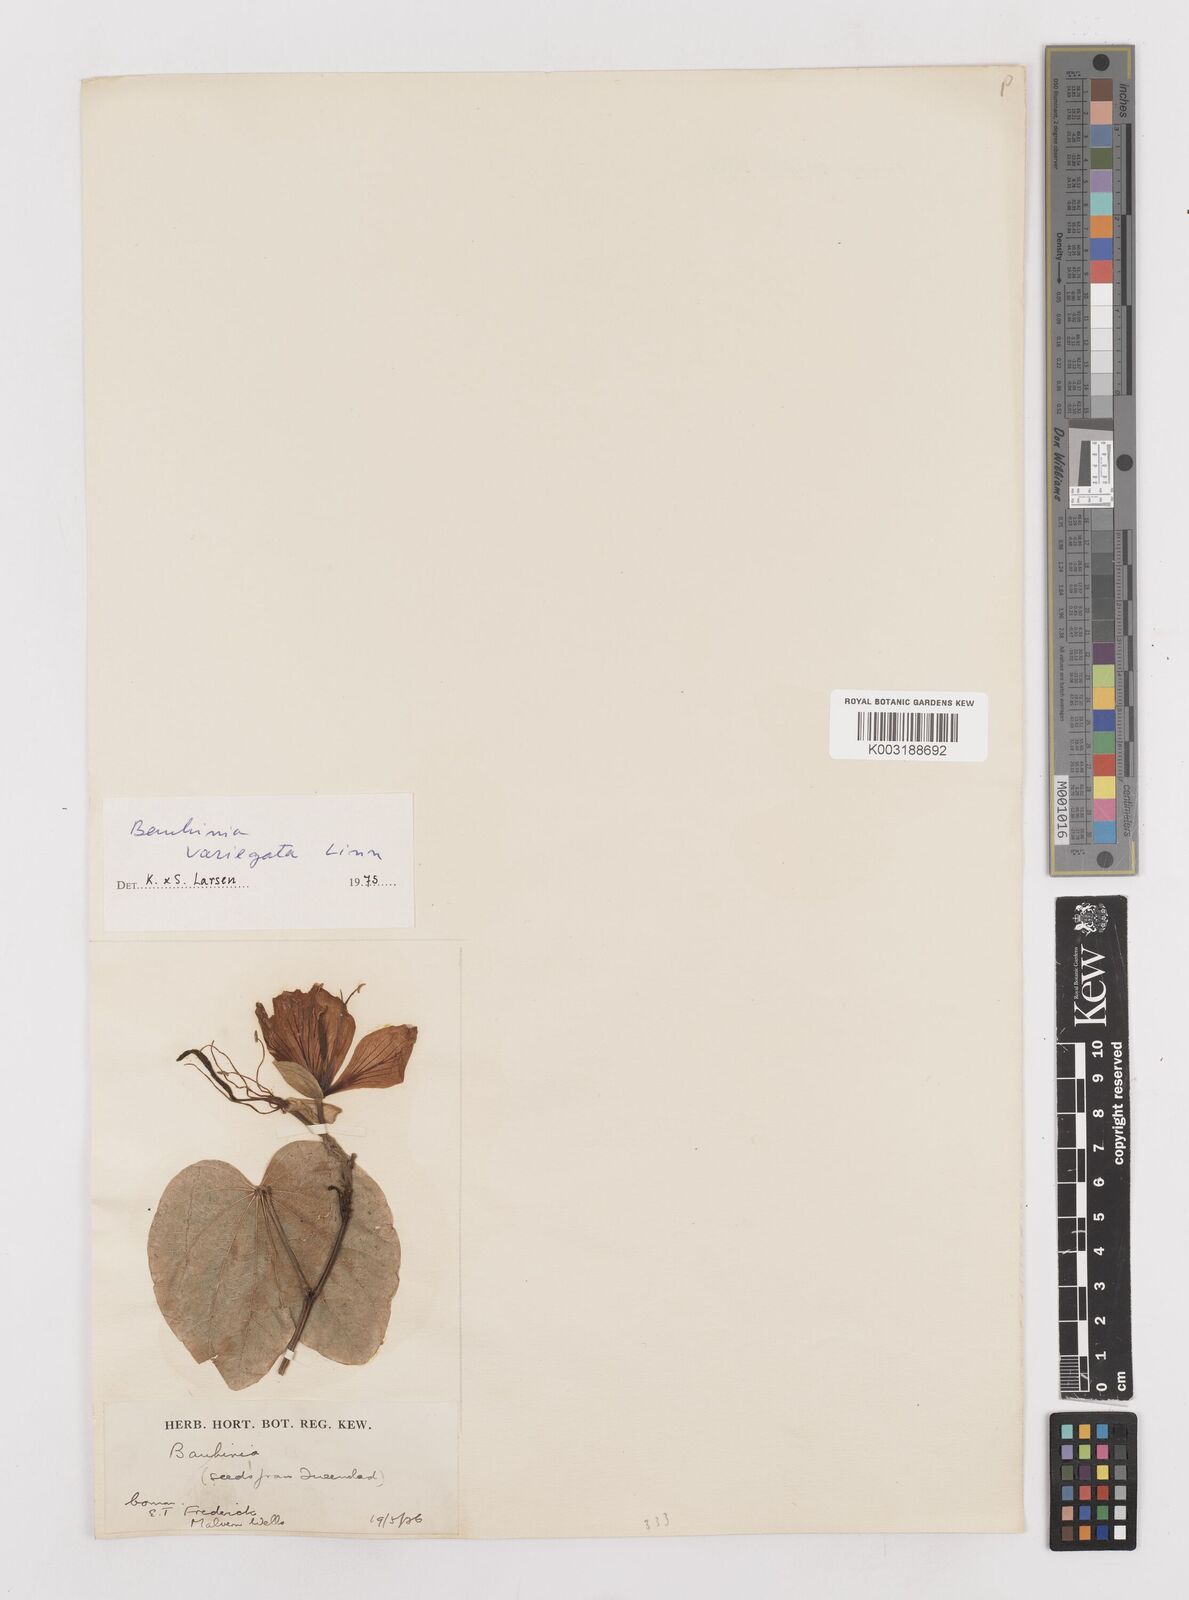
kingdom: Plantae
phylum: Tracheophyta
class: Magnoliopsida
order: Fabales
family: Fabaceae
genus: Bauhinia
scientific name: Bauhinia monandra
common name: Napoleon's plume
